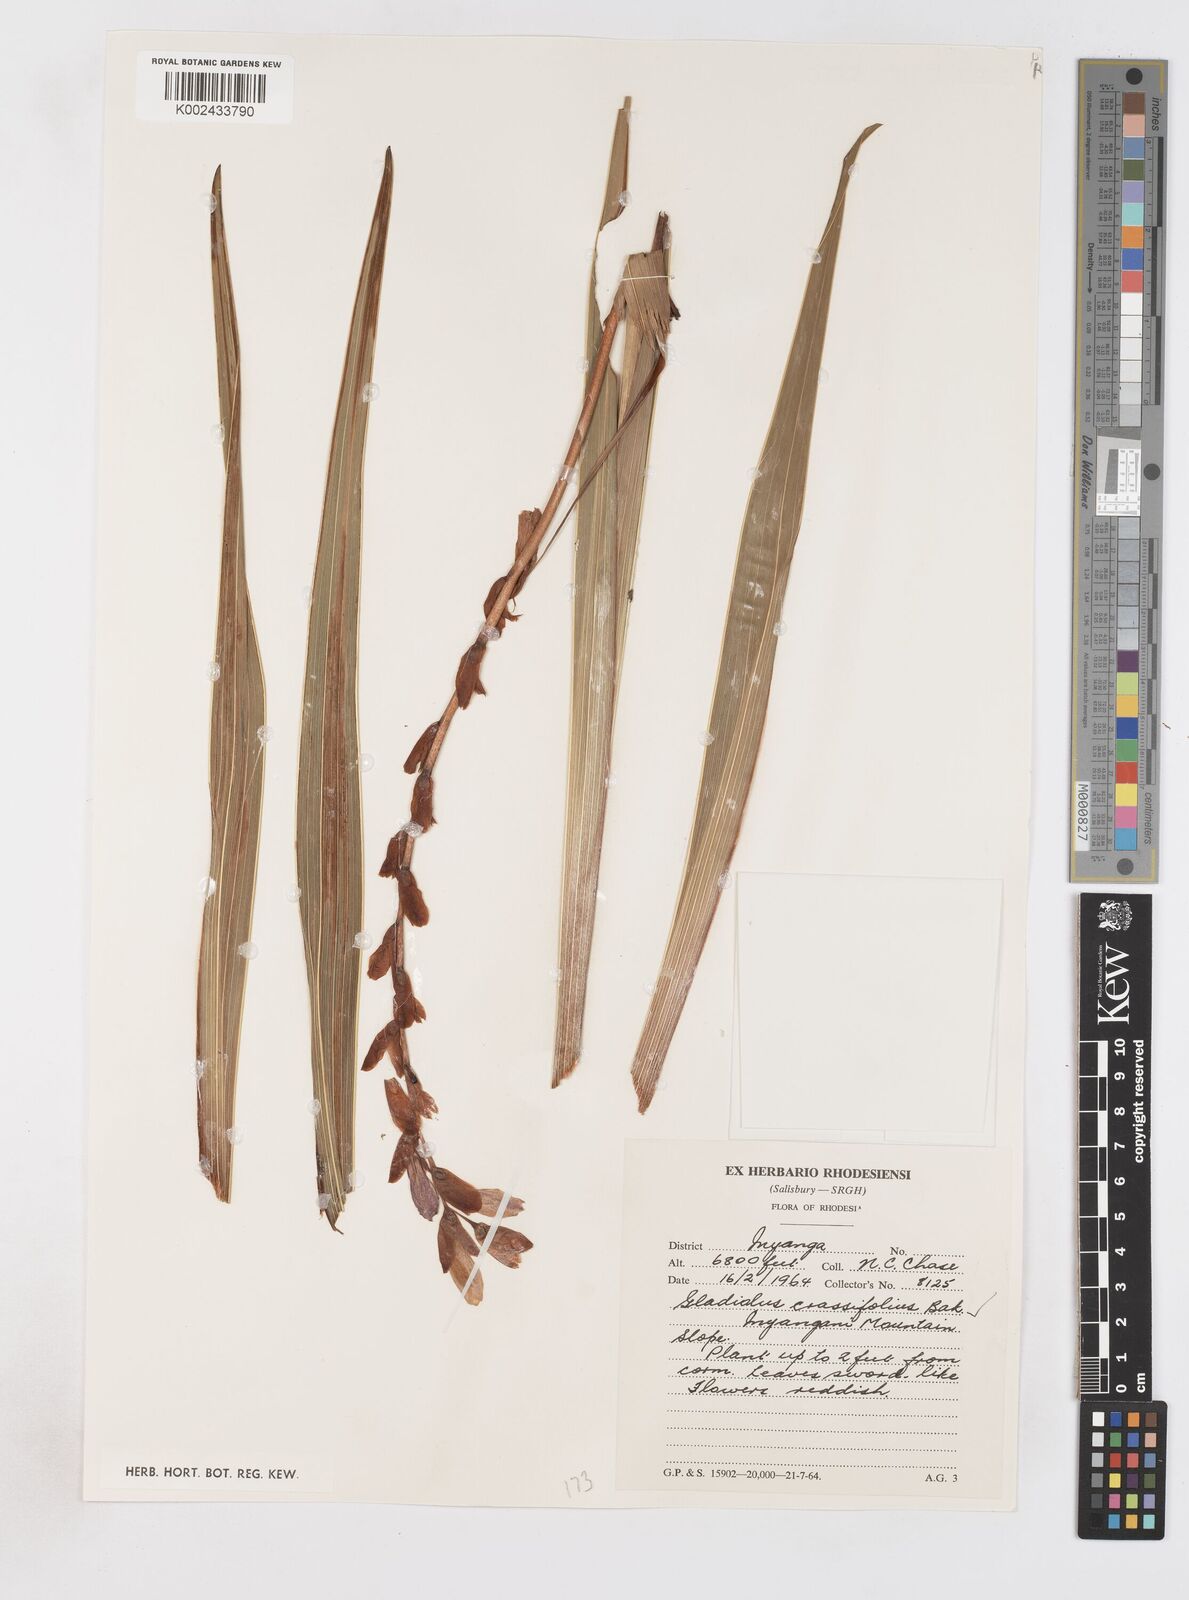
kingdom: Plantae
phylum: Tracheophyta
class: Liliopsida
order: Asparagales
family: Iridaceae
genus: Gladiolus
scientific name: Gladiolus crassifolius
